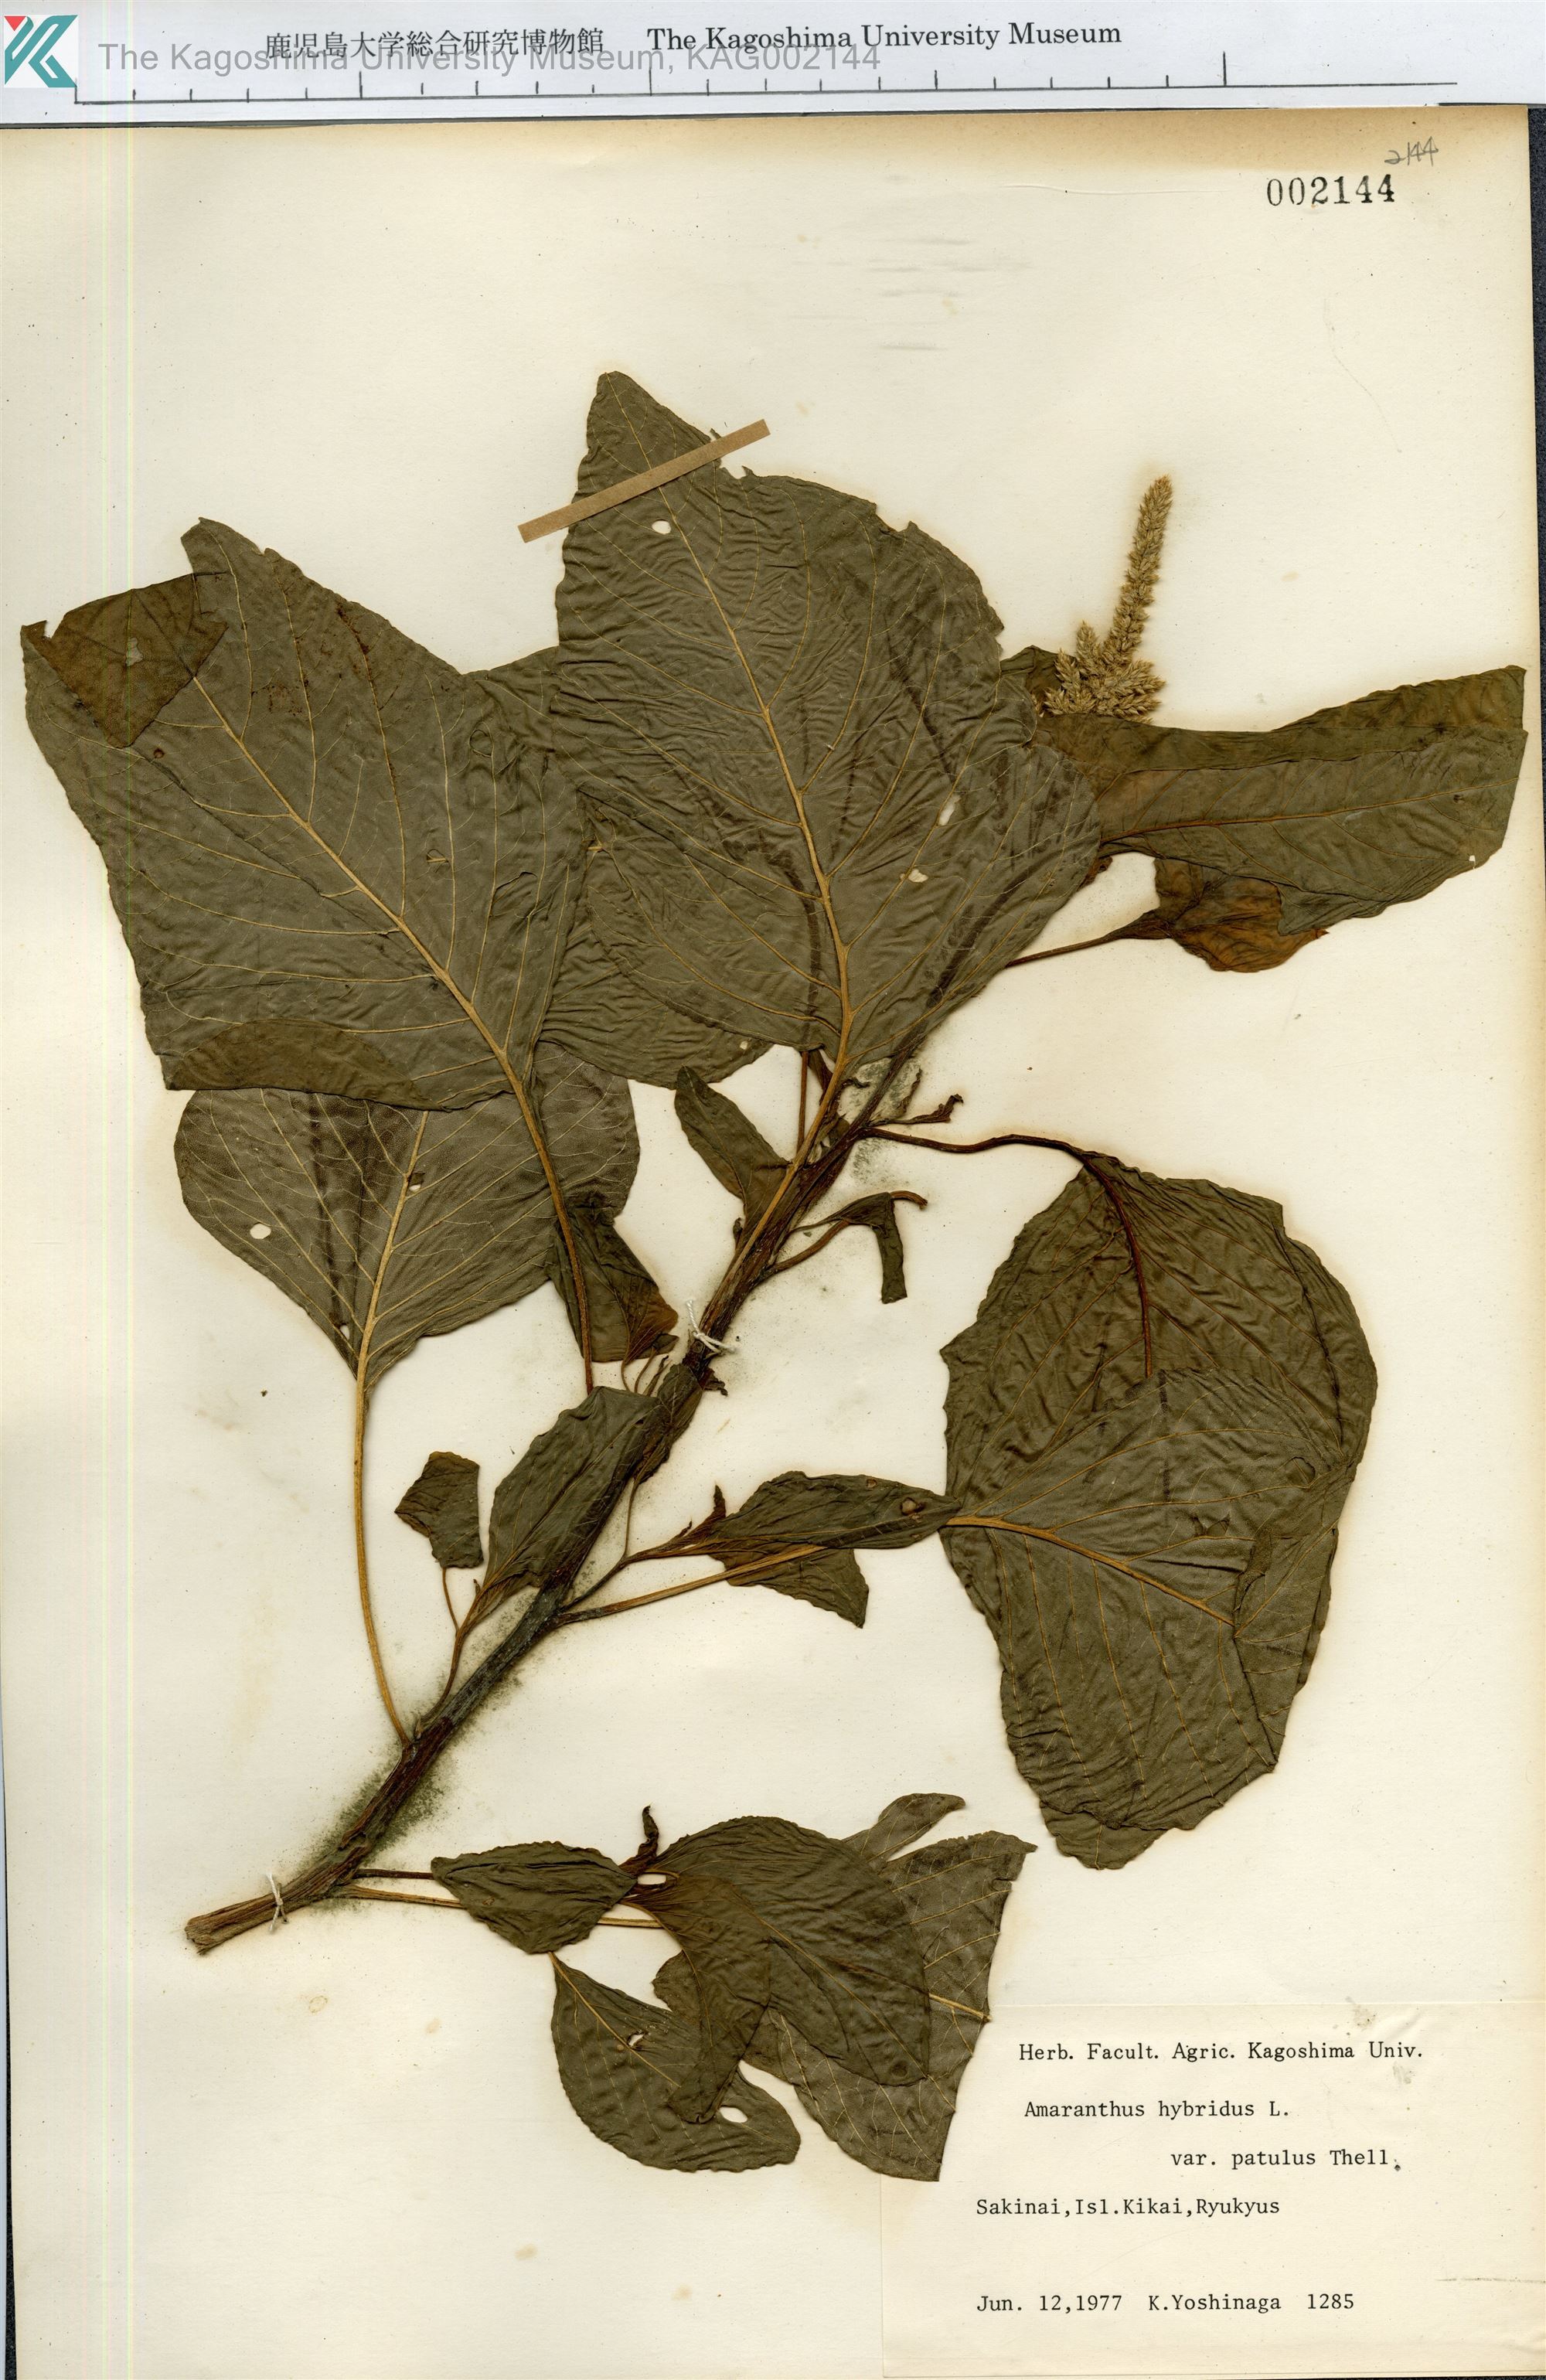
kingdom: Plantae
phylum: Tracheophyta
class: Magnoliopsida
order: Caryophyllales
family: Amaranthaceae
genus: Amaranthus
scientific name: Amaranthus hybridus
